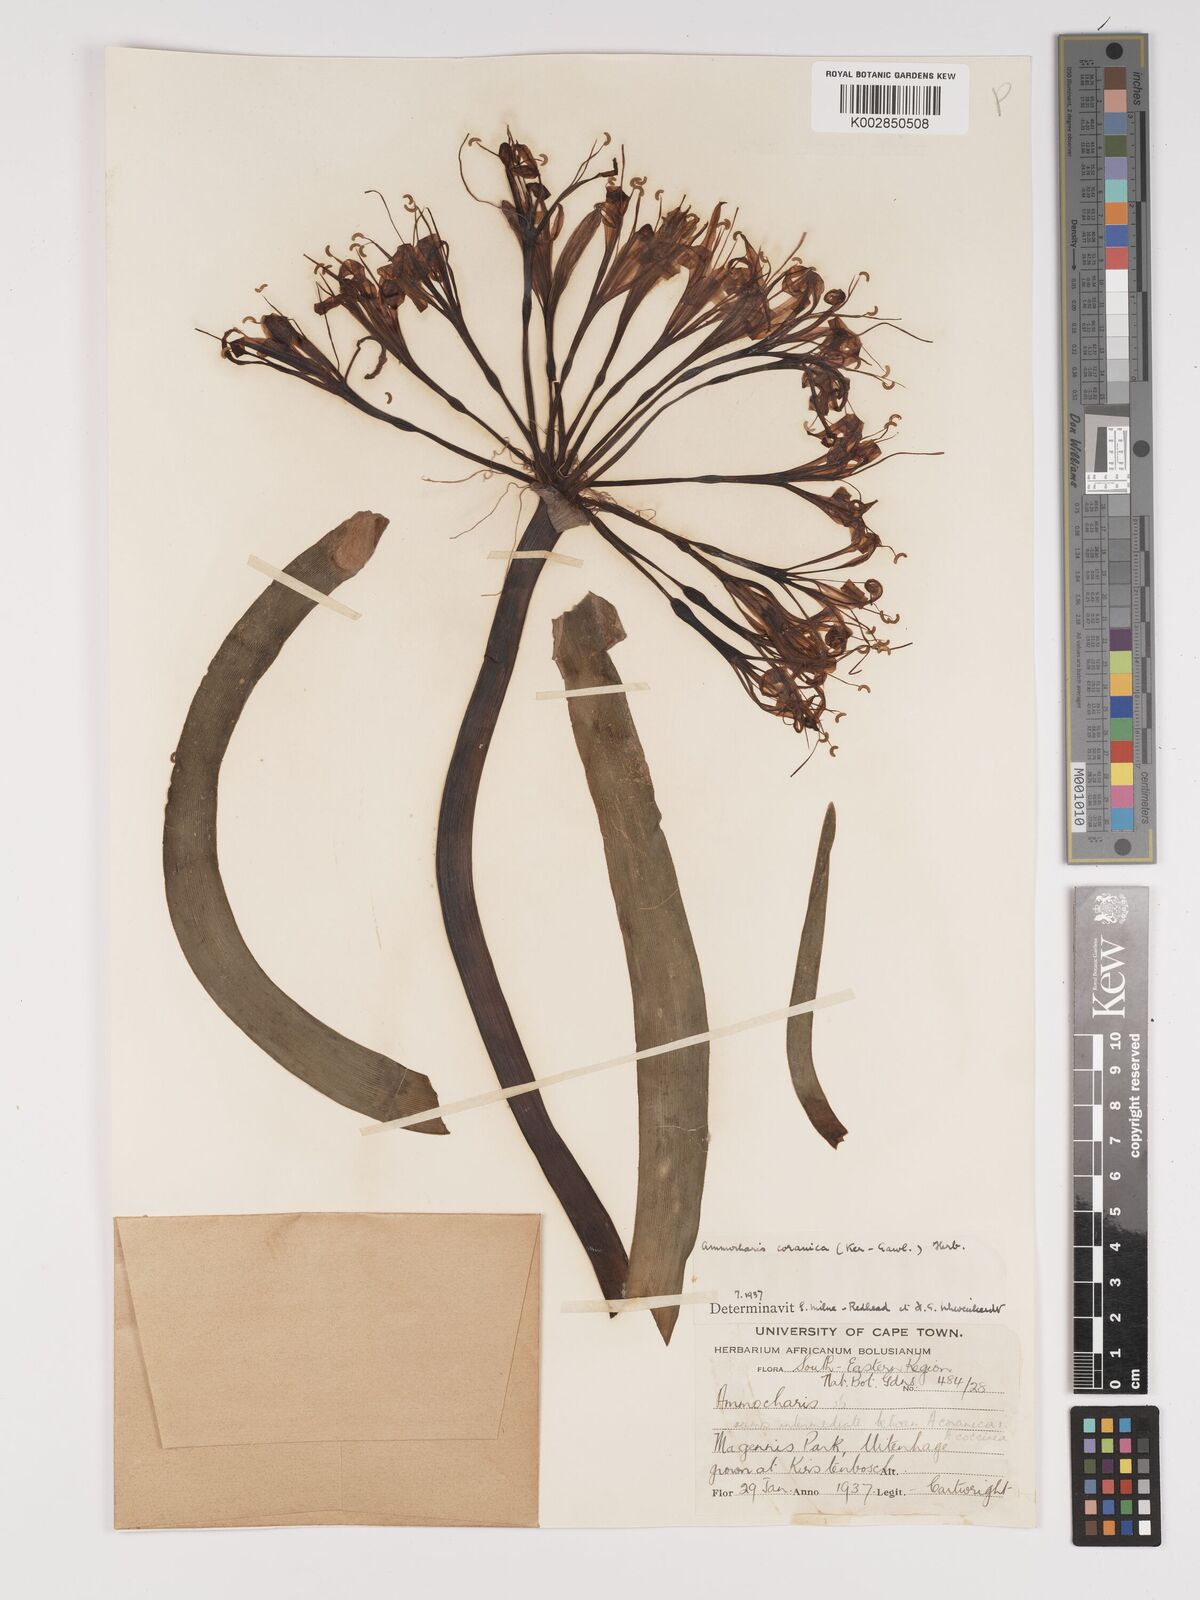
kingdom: Plantae
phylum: Tracheophyta
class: Liliopsida
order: Asparagales
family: Amaryllidaceae
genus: Ammocharis
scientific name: Ammocharis coranica
